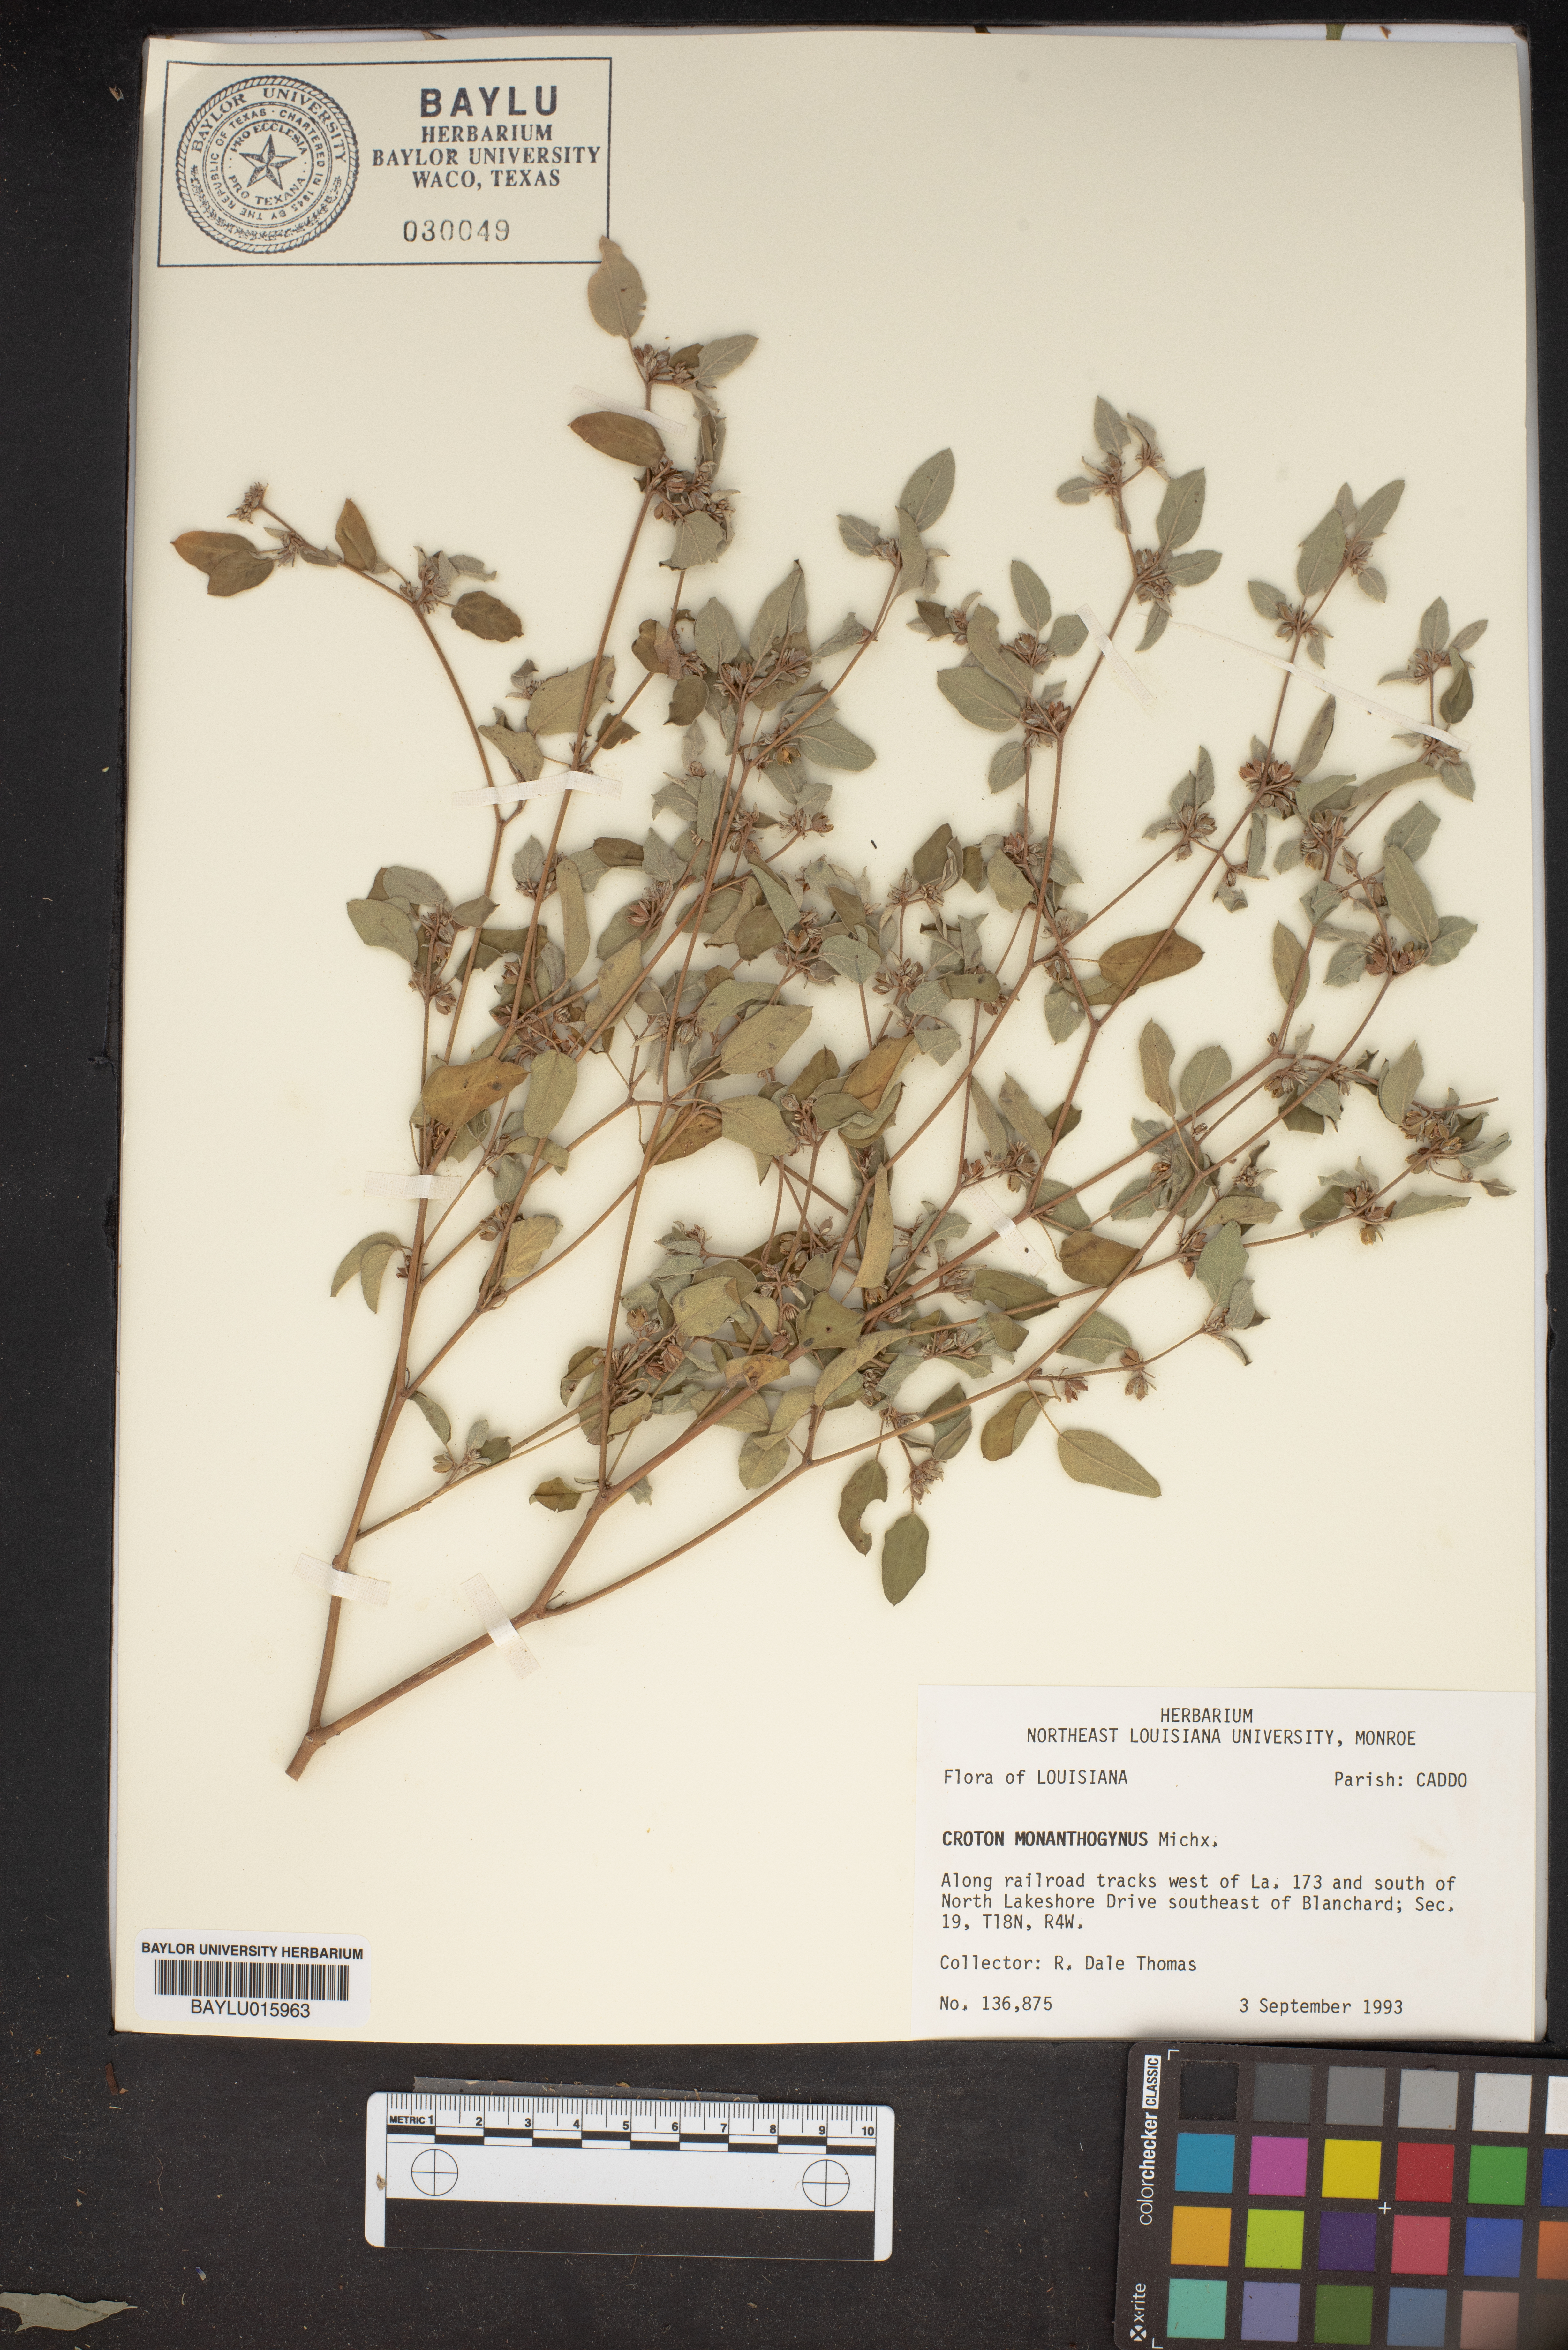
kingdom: Plantae
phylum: Tracheophyta
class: Magnoliopsida
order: Malpighiales
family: Euphorbiaceae
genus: Croton
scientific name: Croton monanthogynus
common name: One-seed croton
